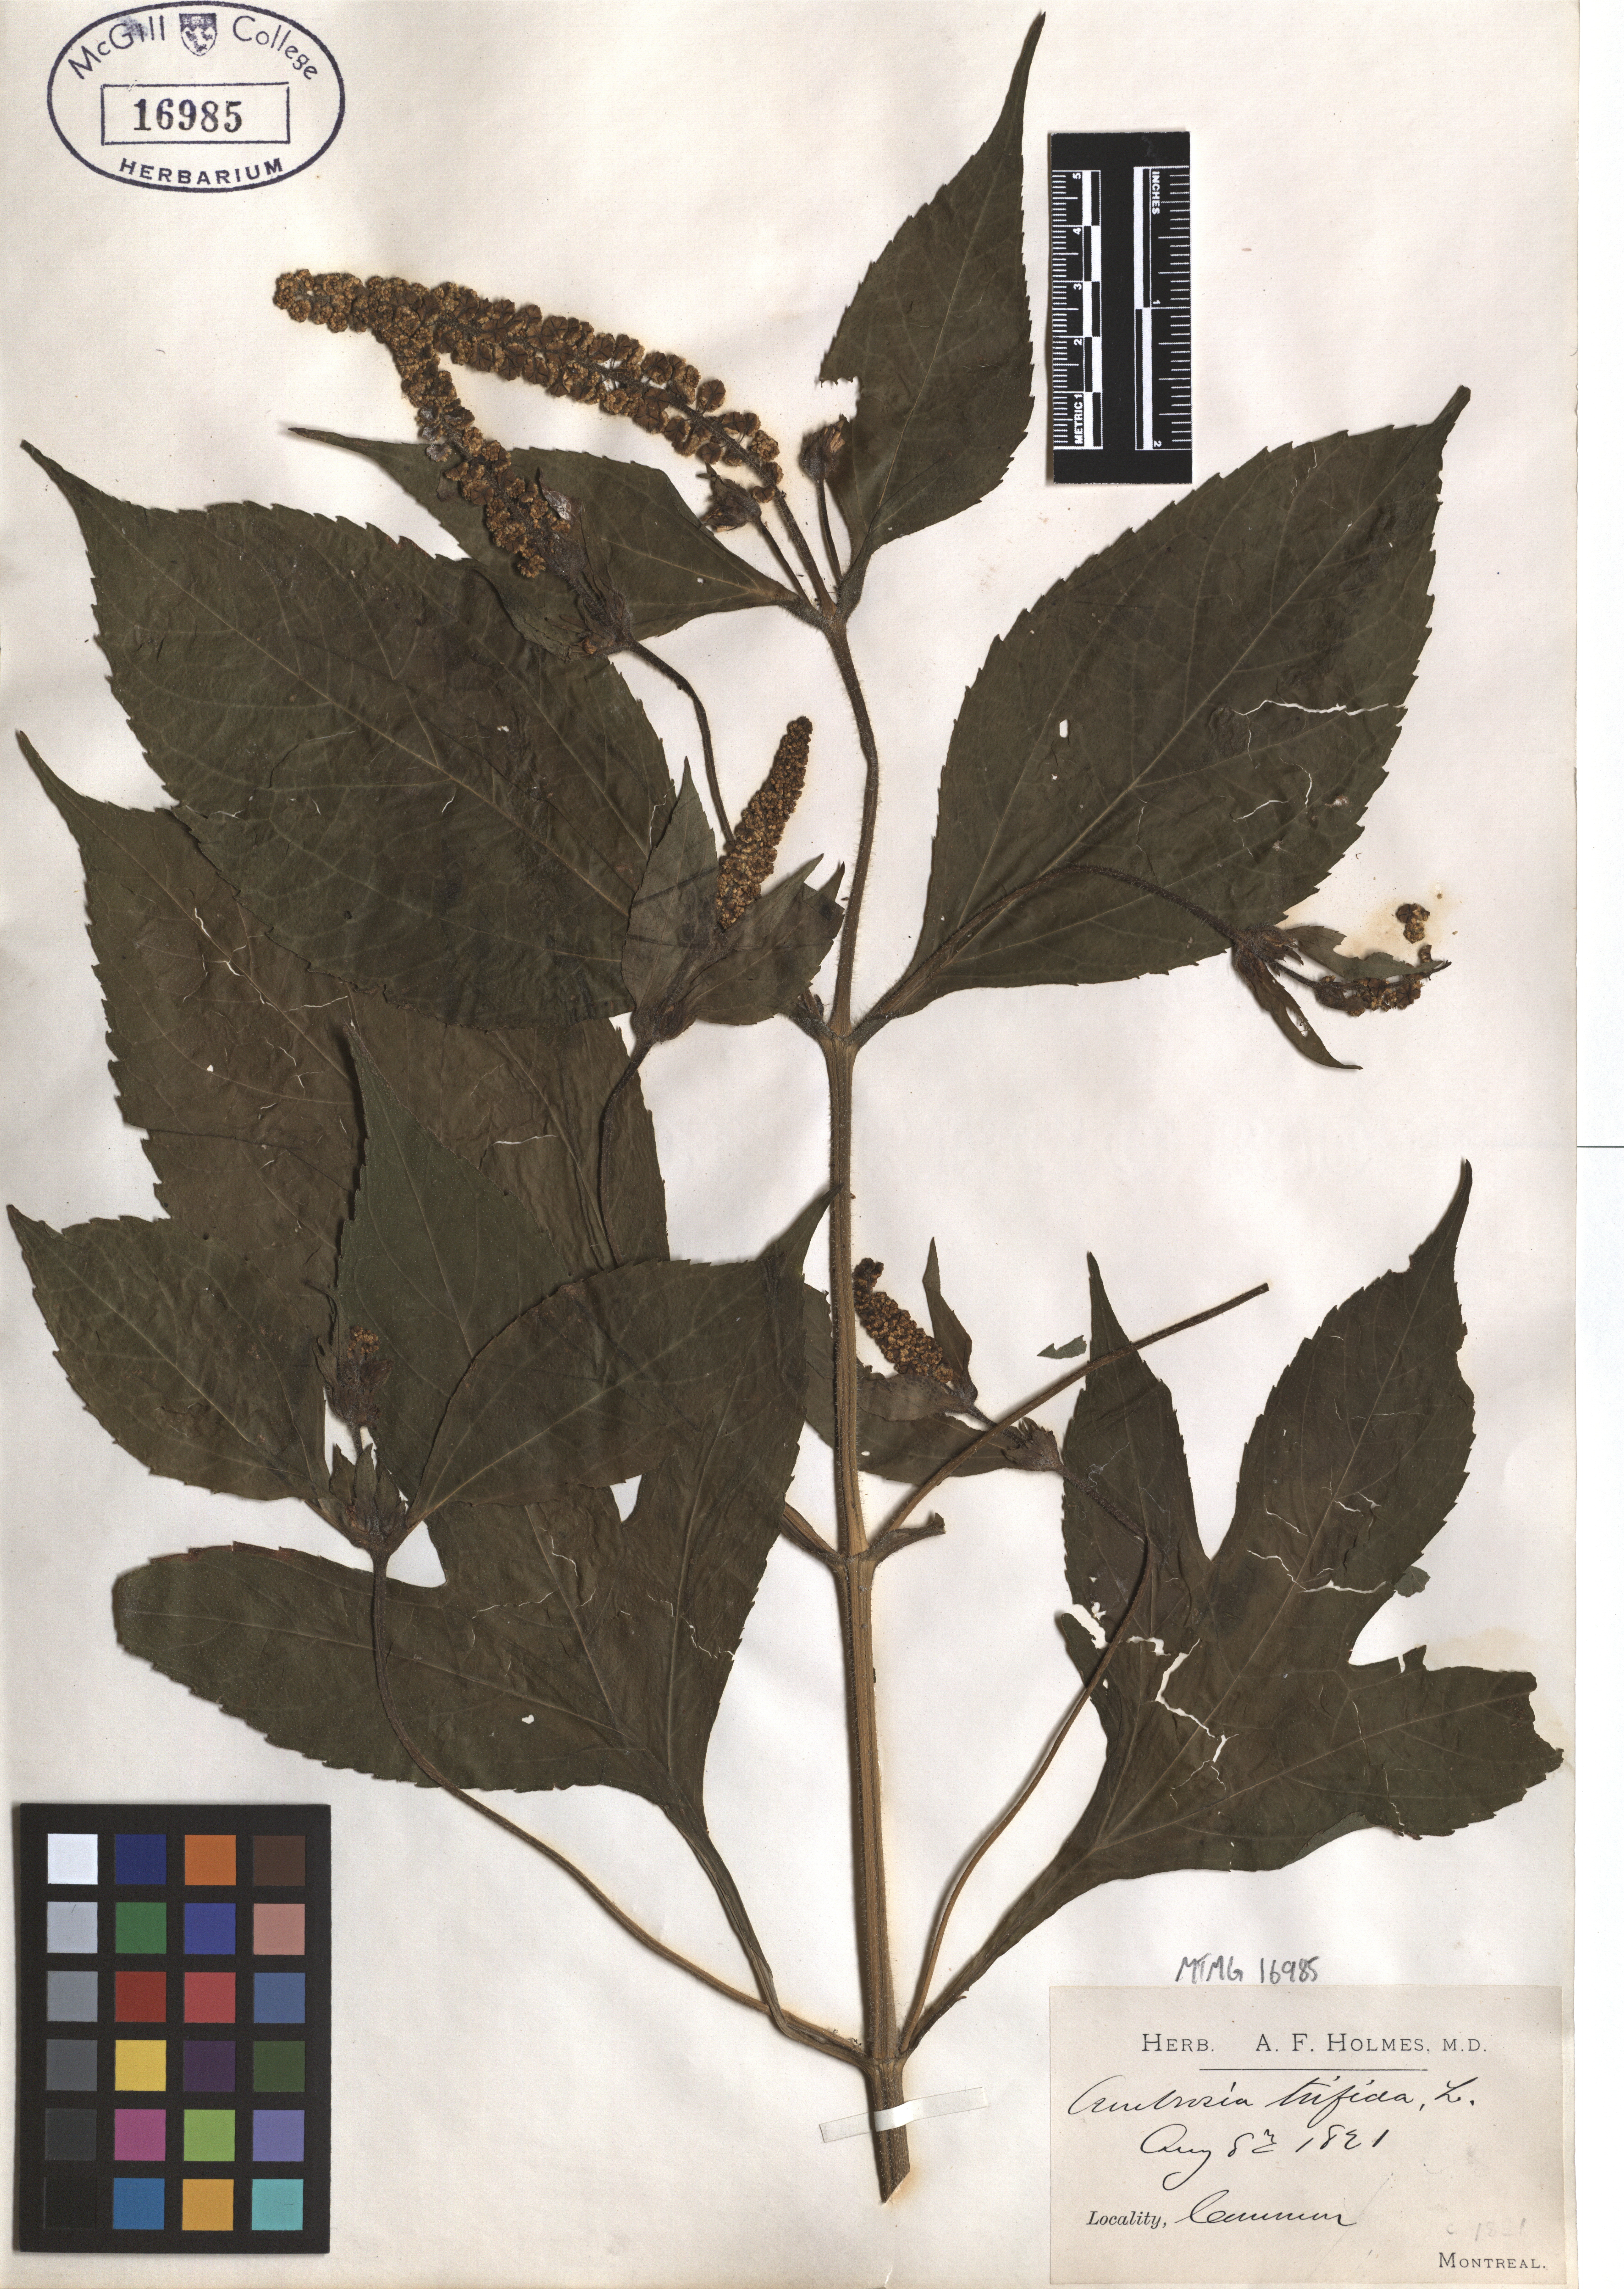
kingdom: Plantae
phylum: Tracheophyta
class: Magnoliopsida
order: Asterales
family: Asteraceae
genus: Ambrosia
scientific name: Ambrosia trifida
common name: Giant ragweed
